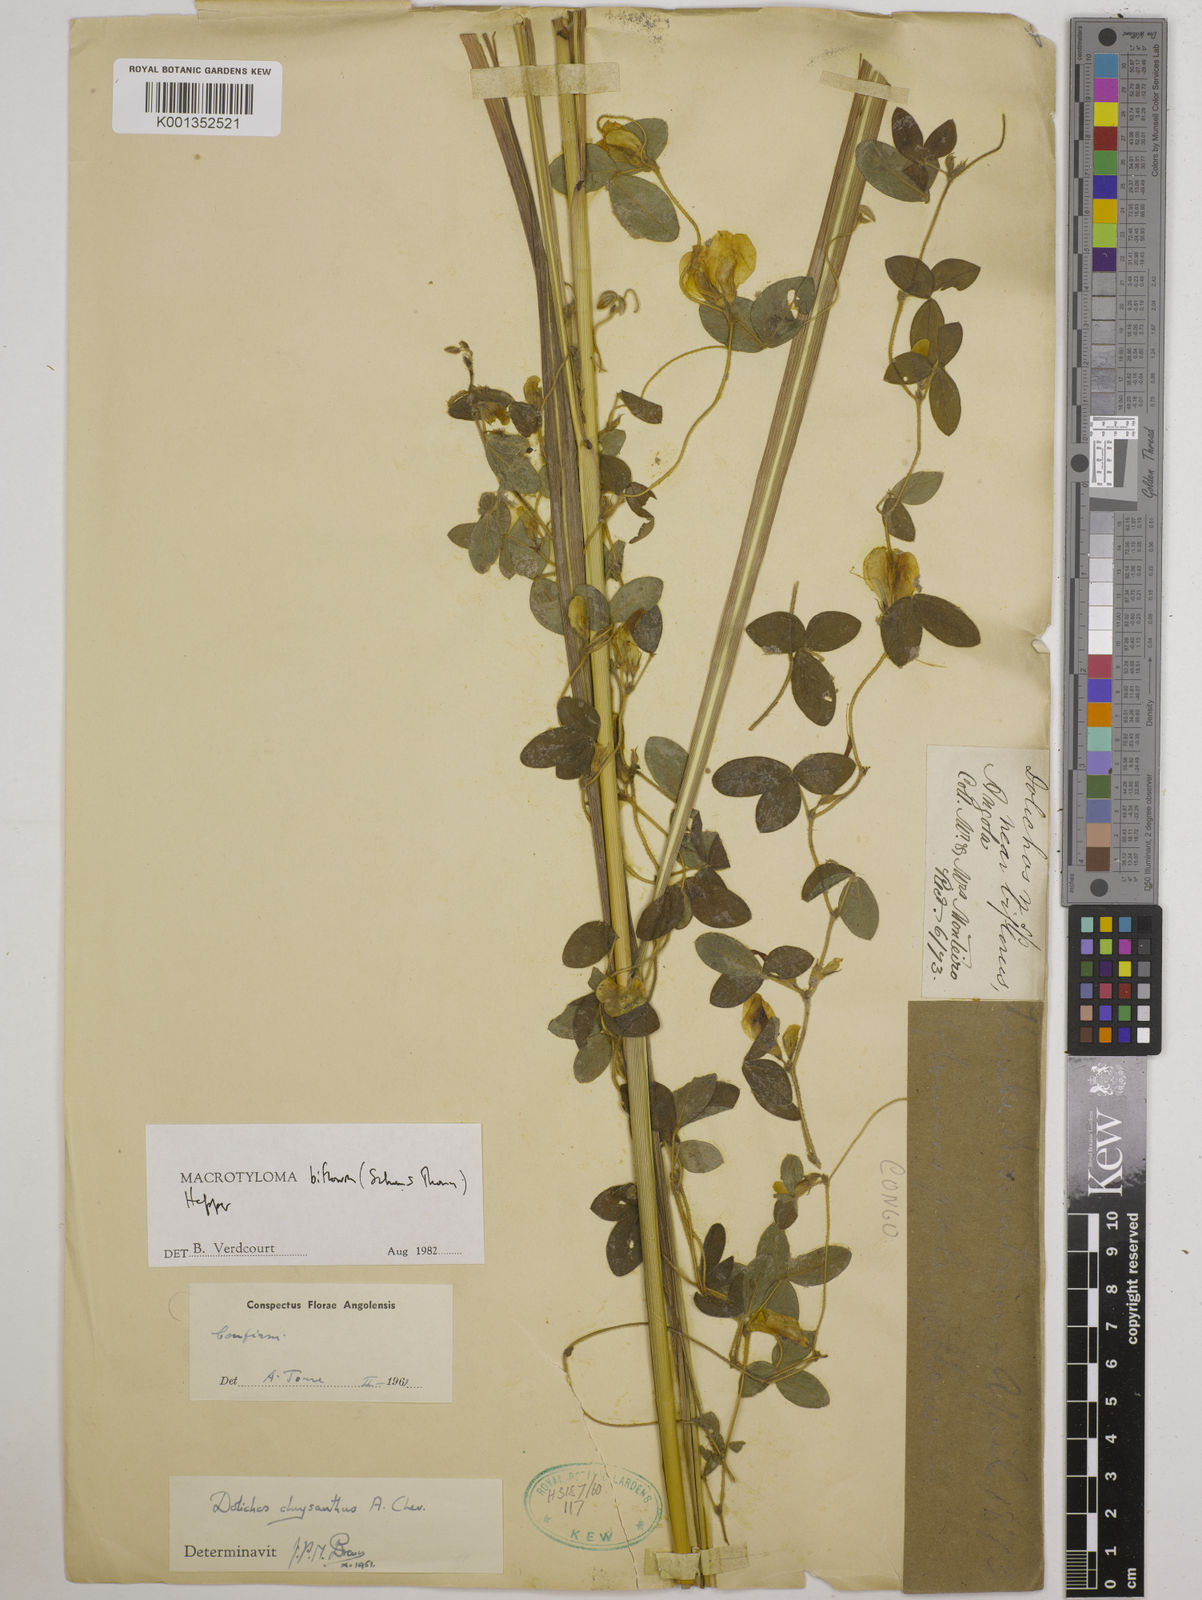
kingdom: Plantae
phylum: Tracheophyta
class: Magnoliopsida
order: Fabales
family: Fabaceae
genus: Macrotyloma
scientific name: Macrotyloma biflorum
